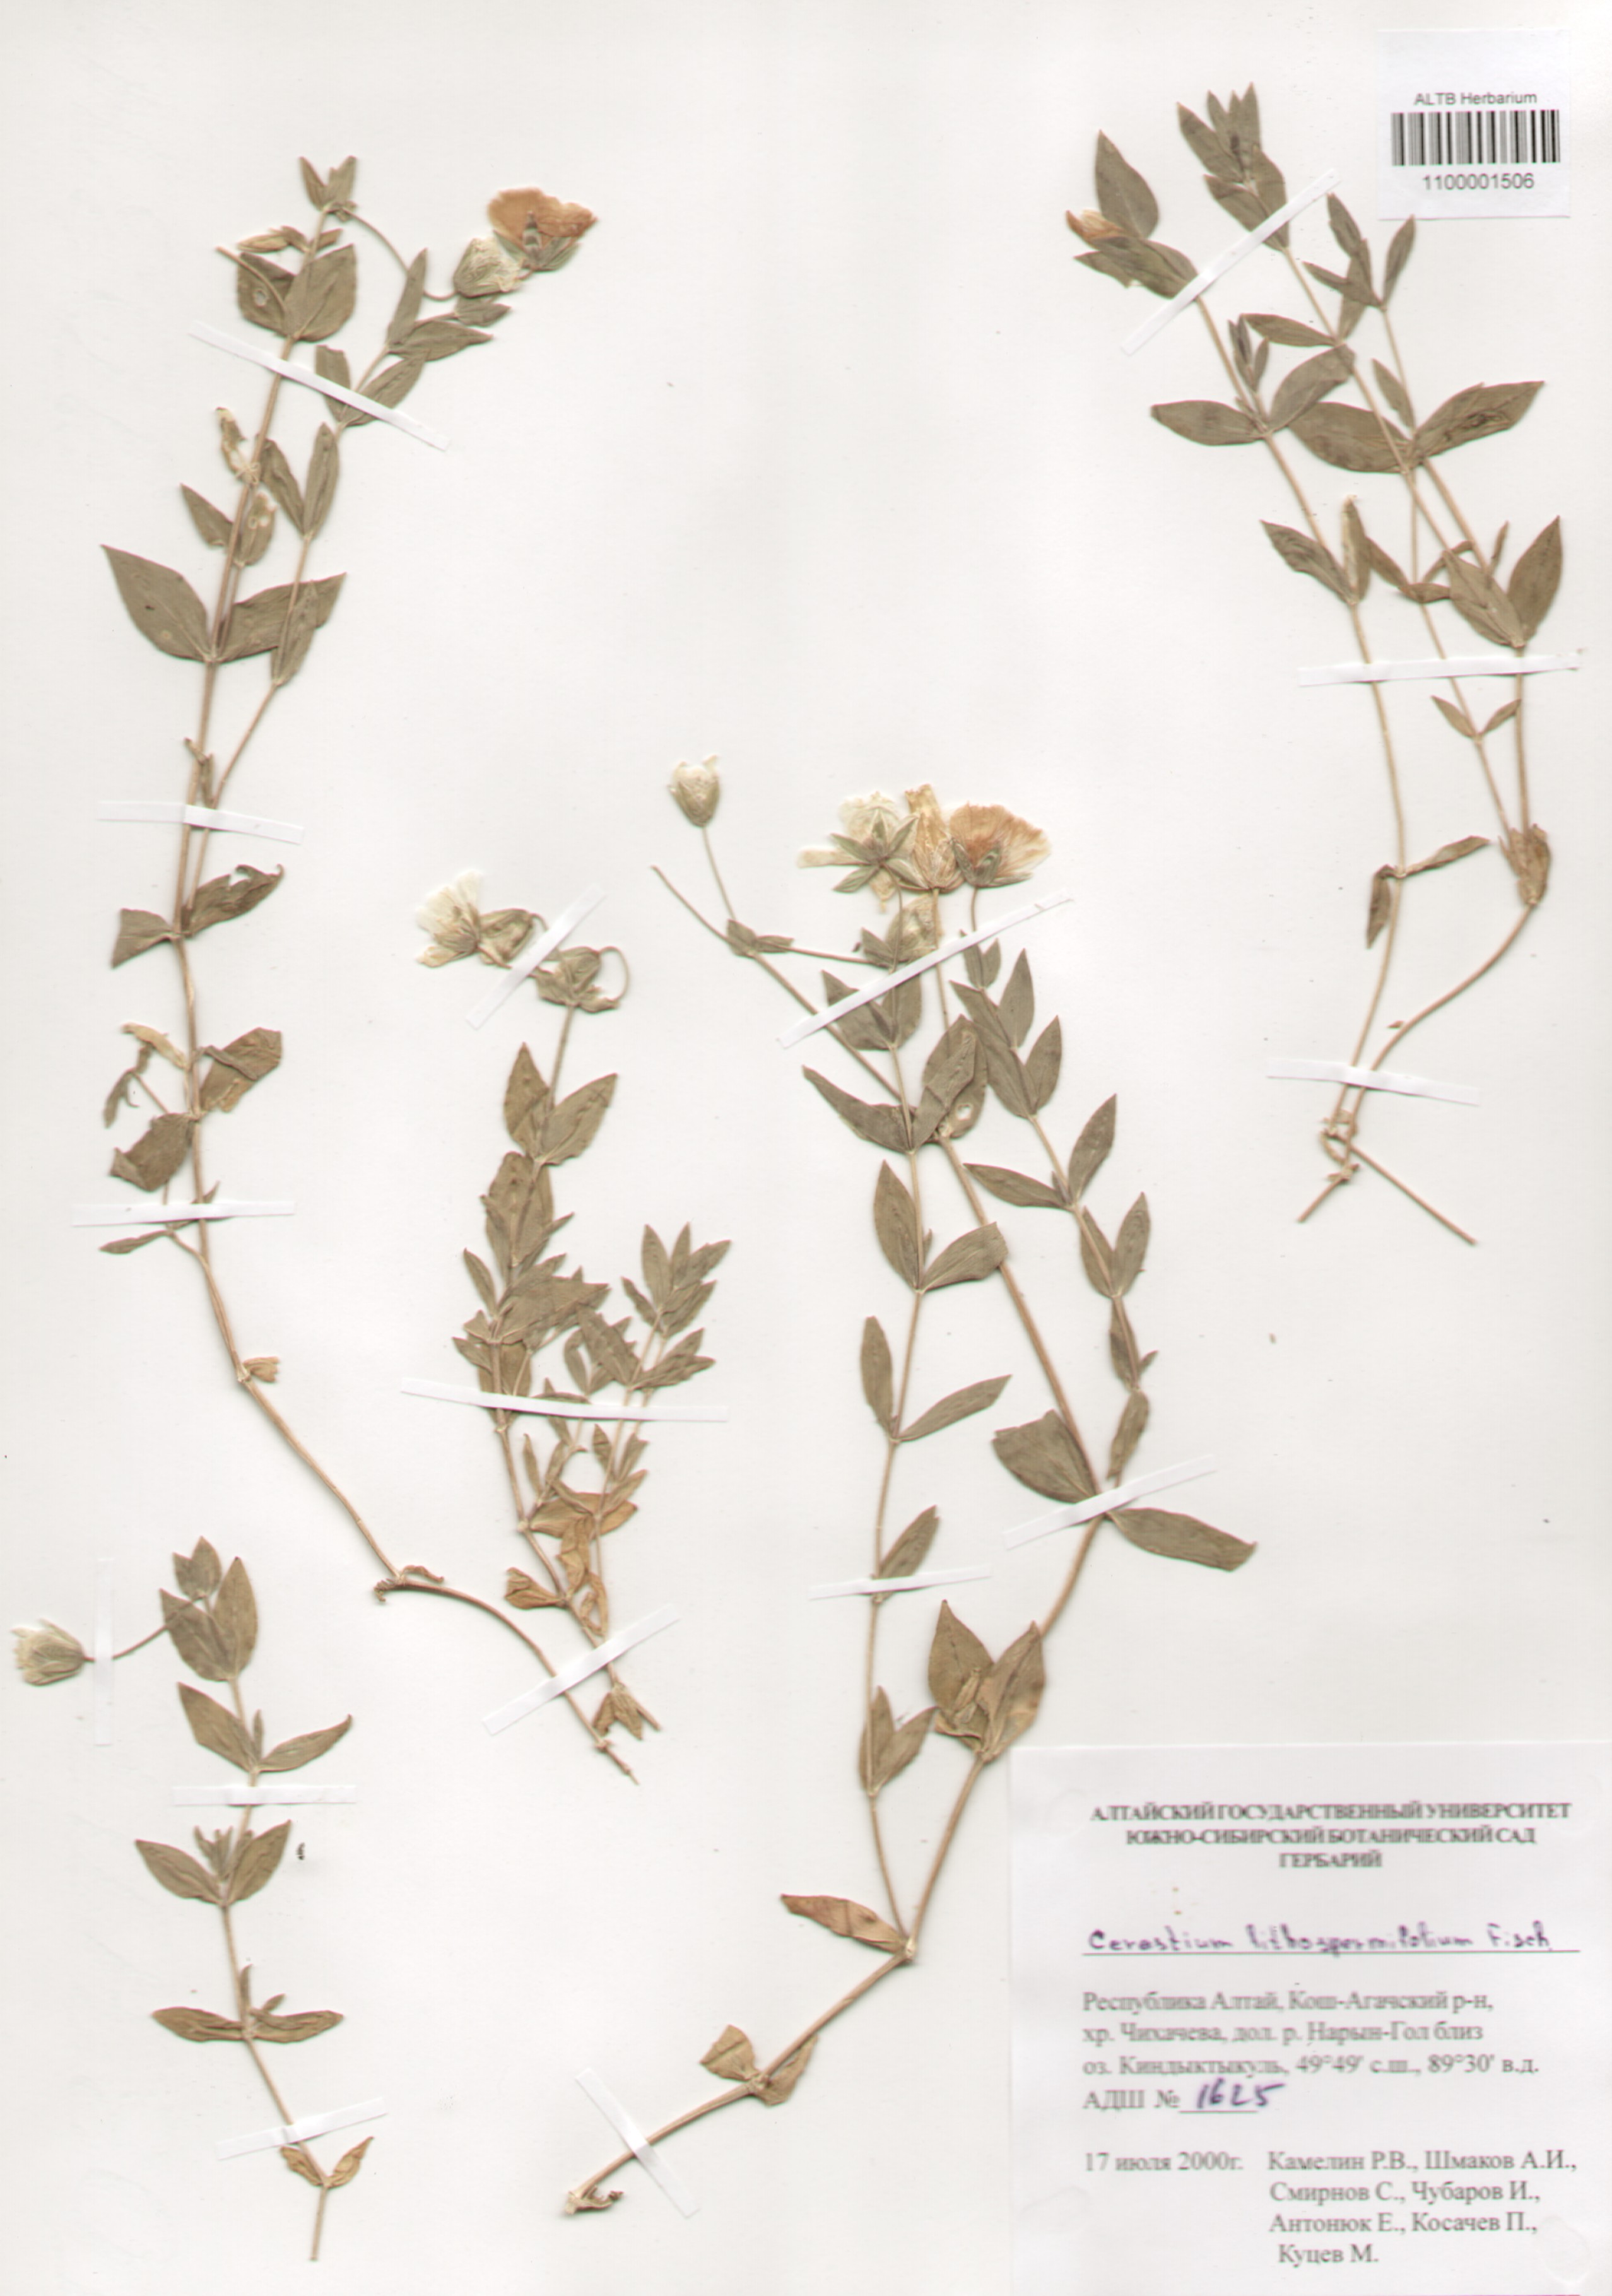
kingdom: Plantae
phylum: Tracheophyta
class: Magnoliopsida
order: Caryophyllales
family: Caryophyllaceae
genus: Cerastium
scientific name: Cerastium lithospermifolium
